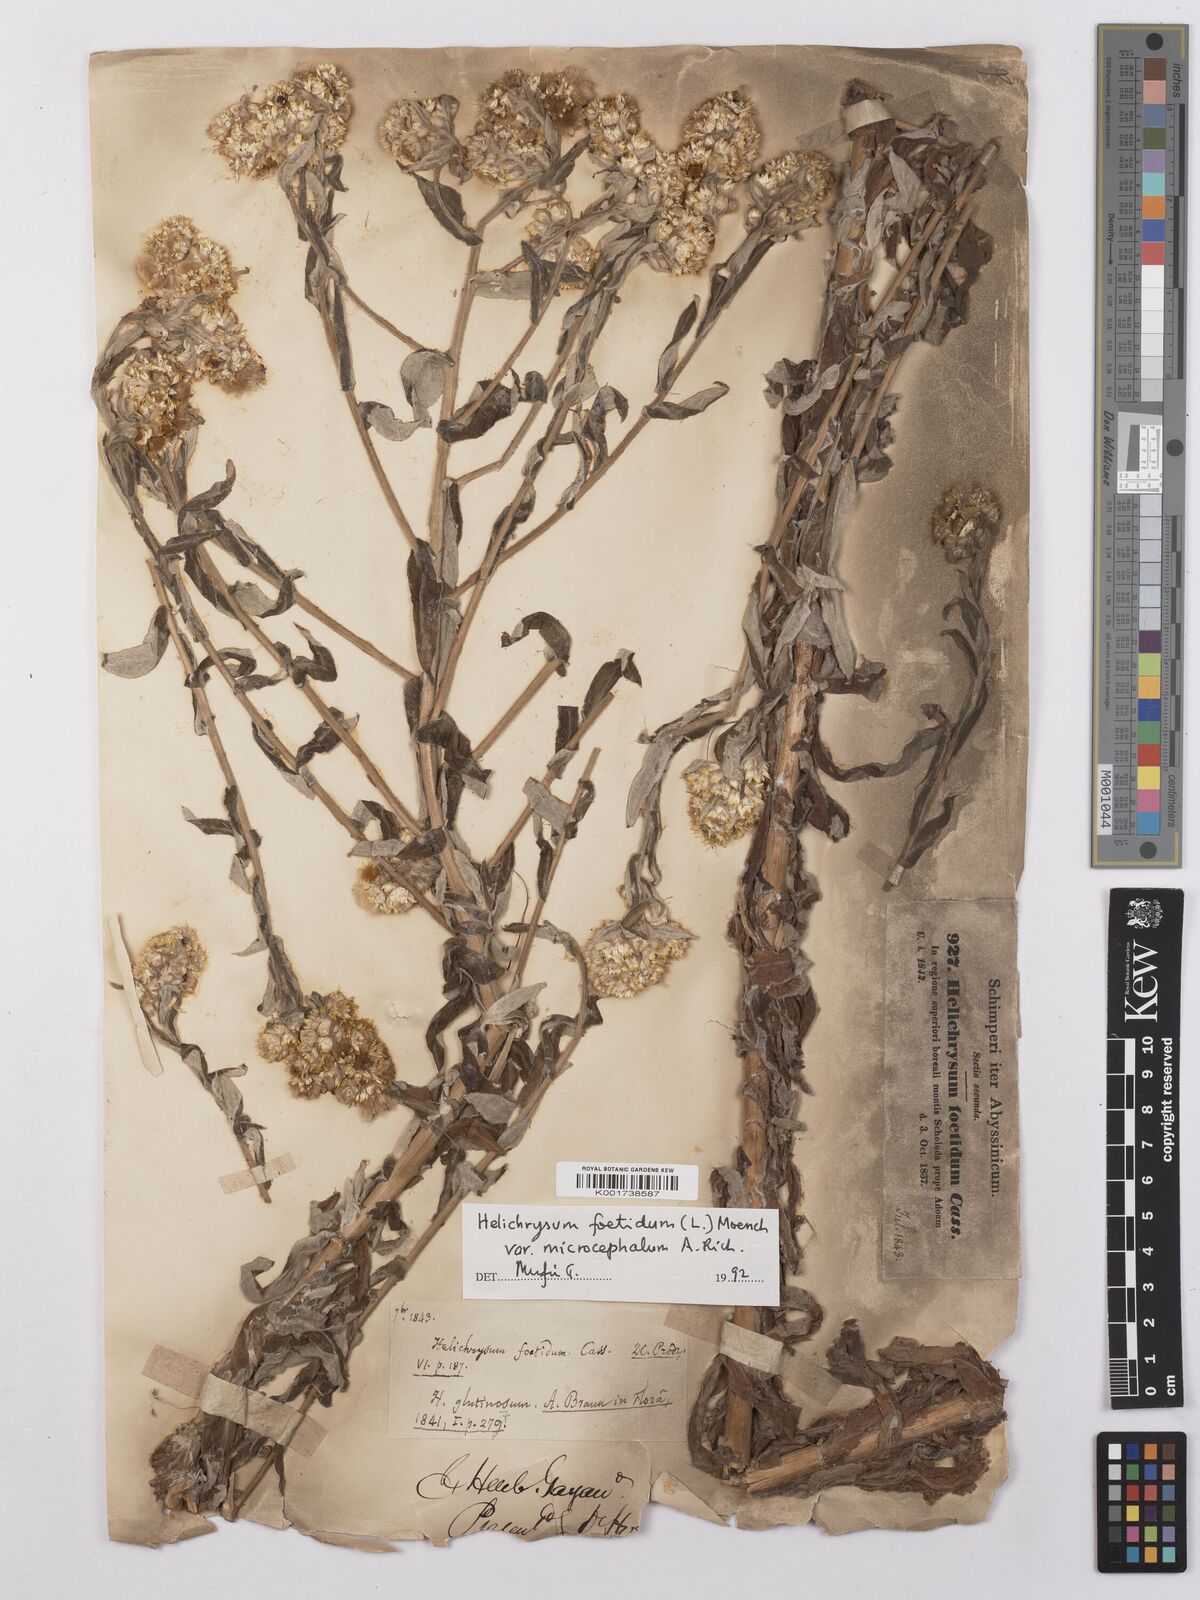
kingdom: Plantae
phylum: Tracheophyta
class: Magnoliopsida
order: Asterales
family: Asteraceae
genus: Helichrysum
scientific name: Helichrysum foetidum
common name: Stinking everlasting
